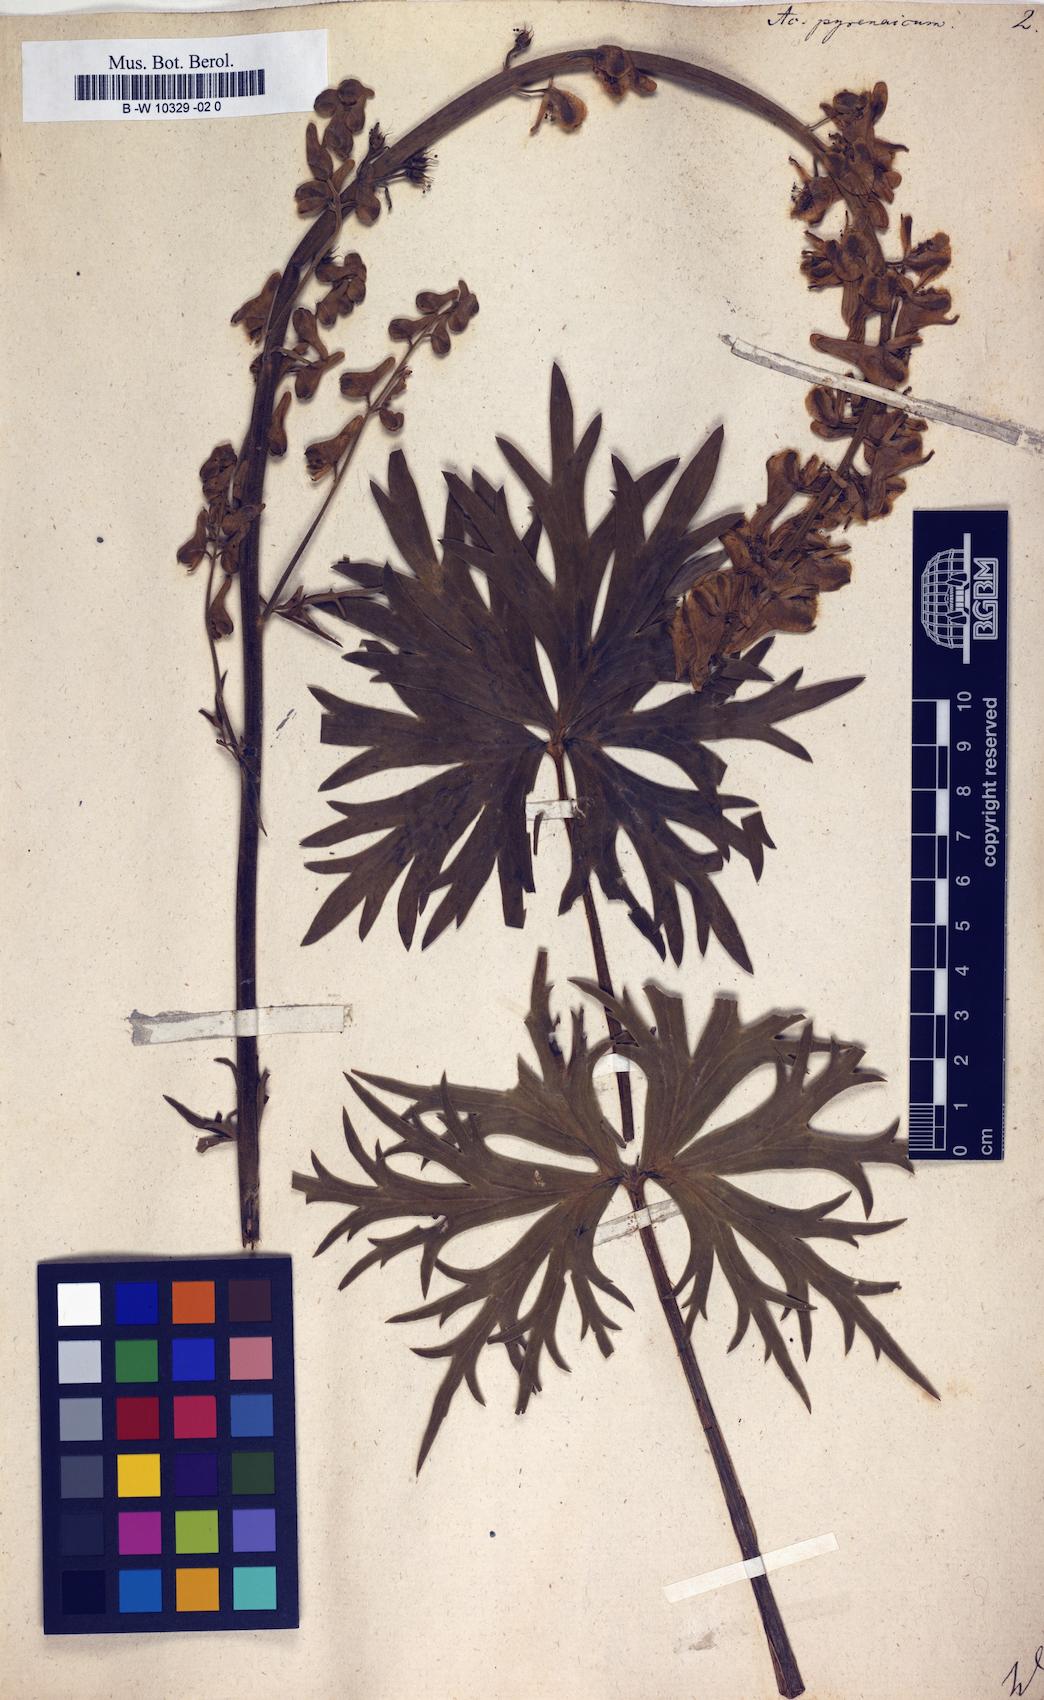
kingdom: Plantae
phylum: Tracheophyta
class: Magnoliopsida
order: Ranunculales
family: Ranunculaceae
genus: Aconitum
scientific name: Aconitum lycoctonum
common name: Wolf's-bane
